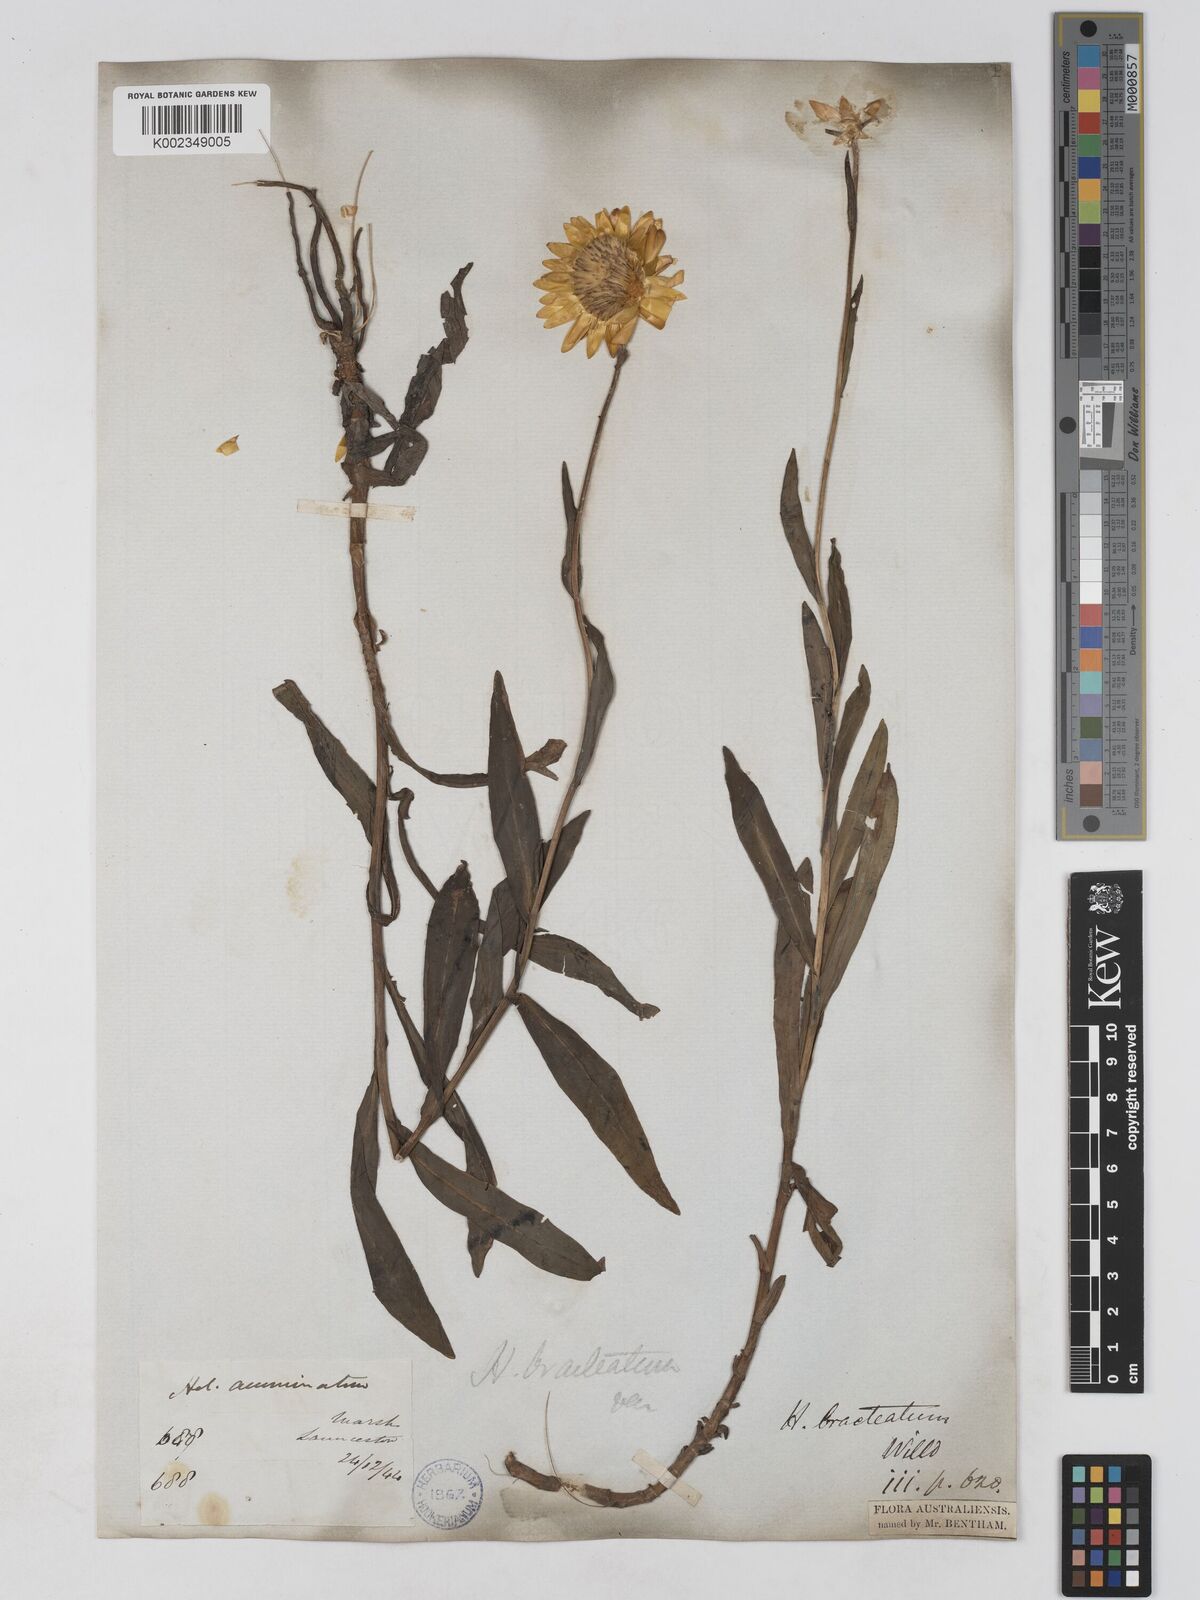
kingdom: Plantae
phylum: Tracheophyta
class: Magnoliopsida
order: Asterales
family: Asteraceae
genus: Xerochrysum
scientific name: Xerochrysum bracteatum
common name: Bracted strawflower
